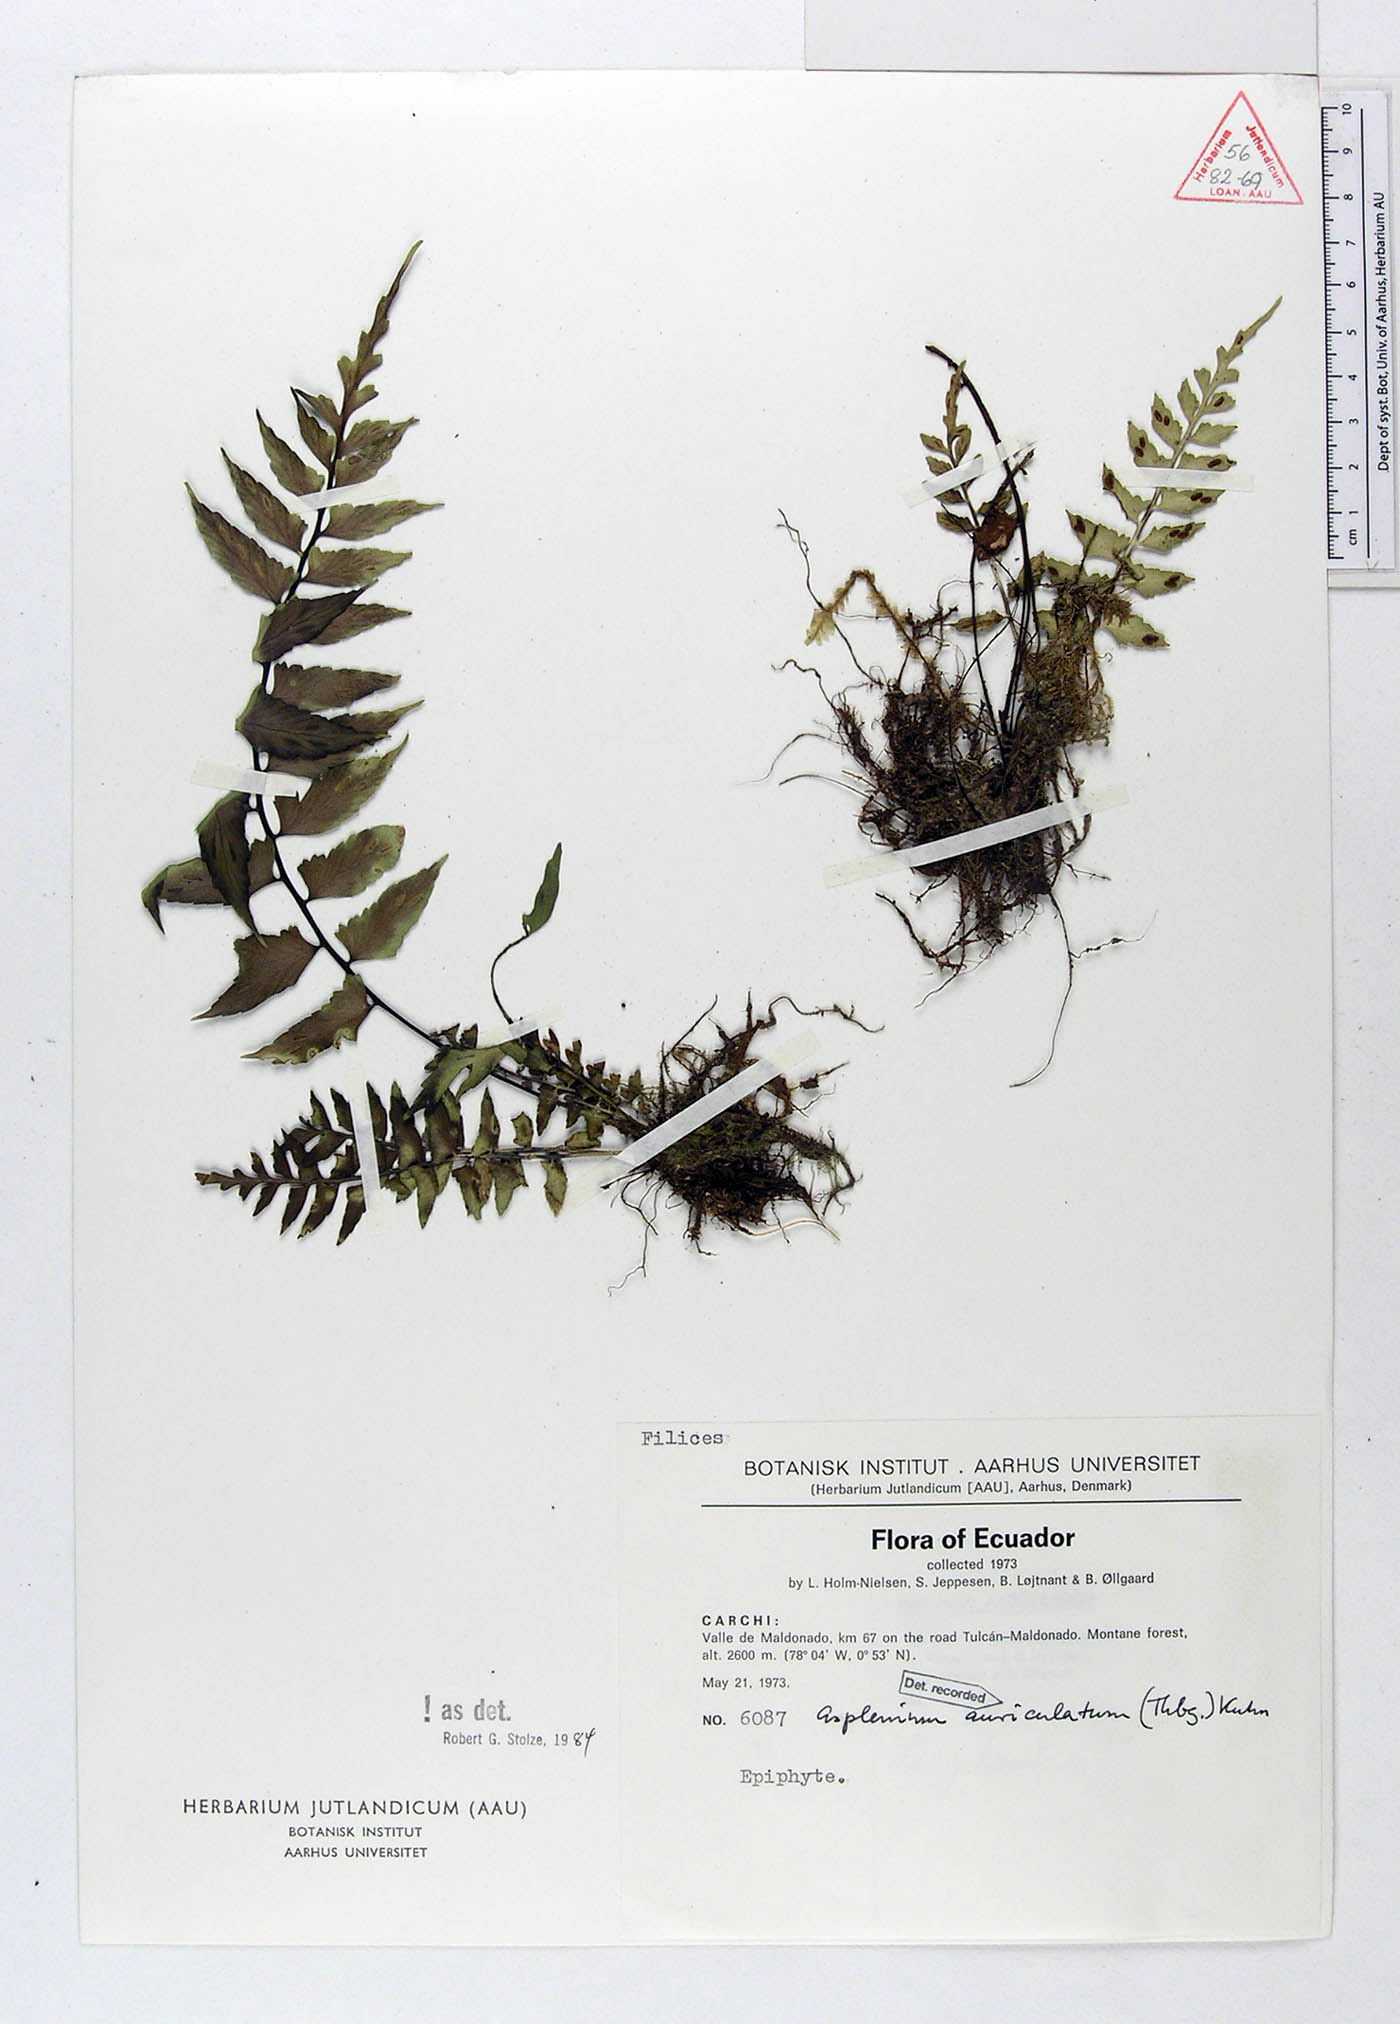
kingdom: Plantae
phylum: Tracheophyta
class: Polypodiopsida
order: Polypodiales
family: Aspleniaceae
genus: Asplenium
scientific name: Asplenium auriculatum
